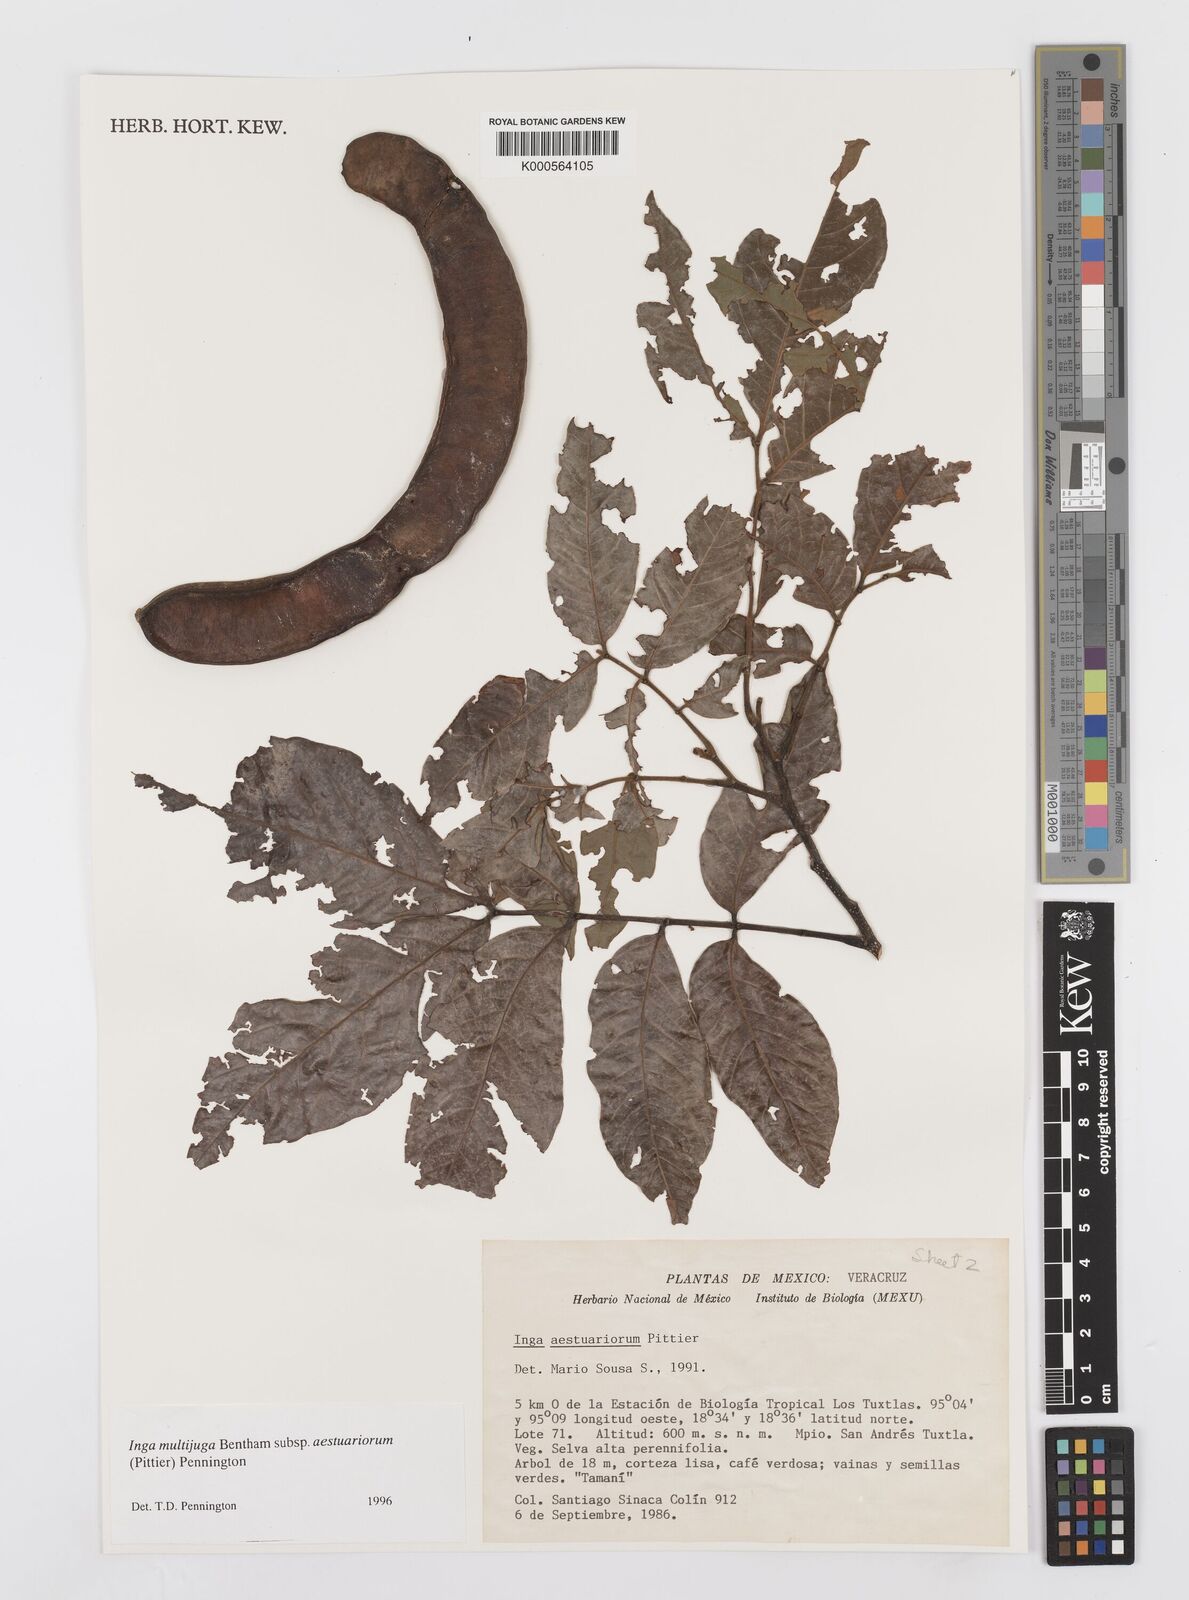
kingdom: Plantae
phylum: Tracheophyta
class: Magnoliopsida
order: Fabales
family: Fabaceae
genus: Inga
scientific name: Inga multijuga
